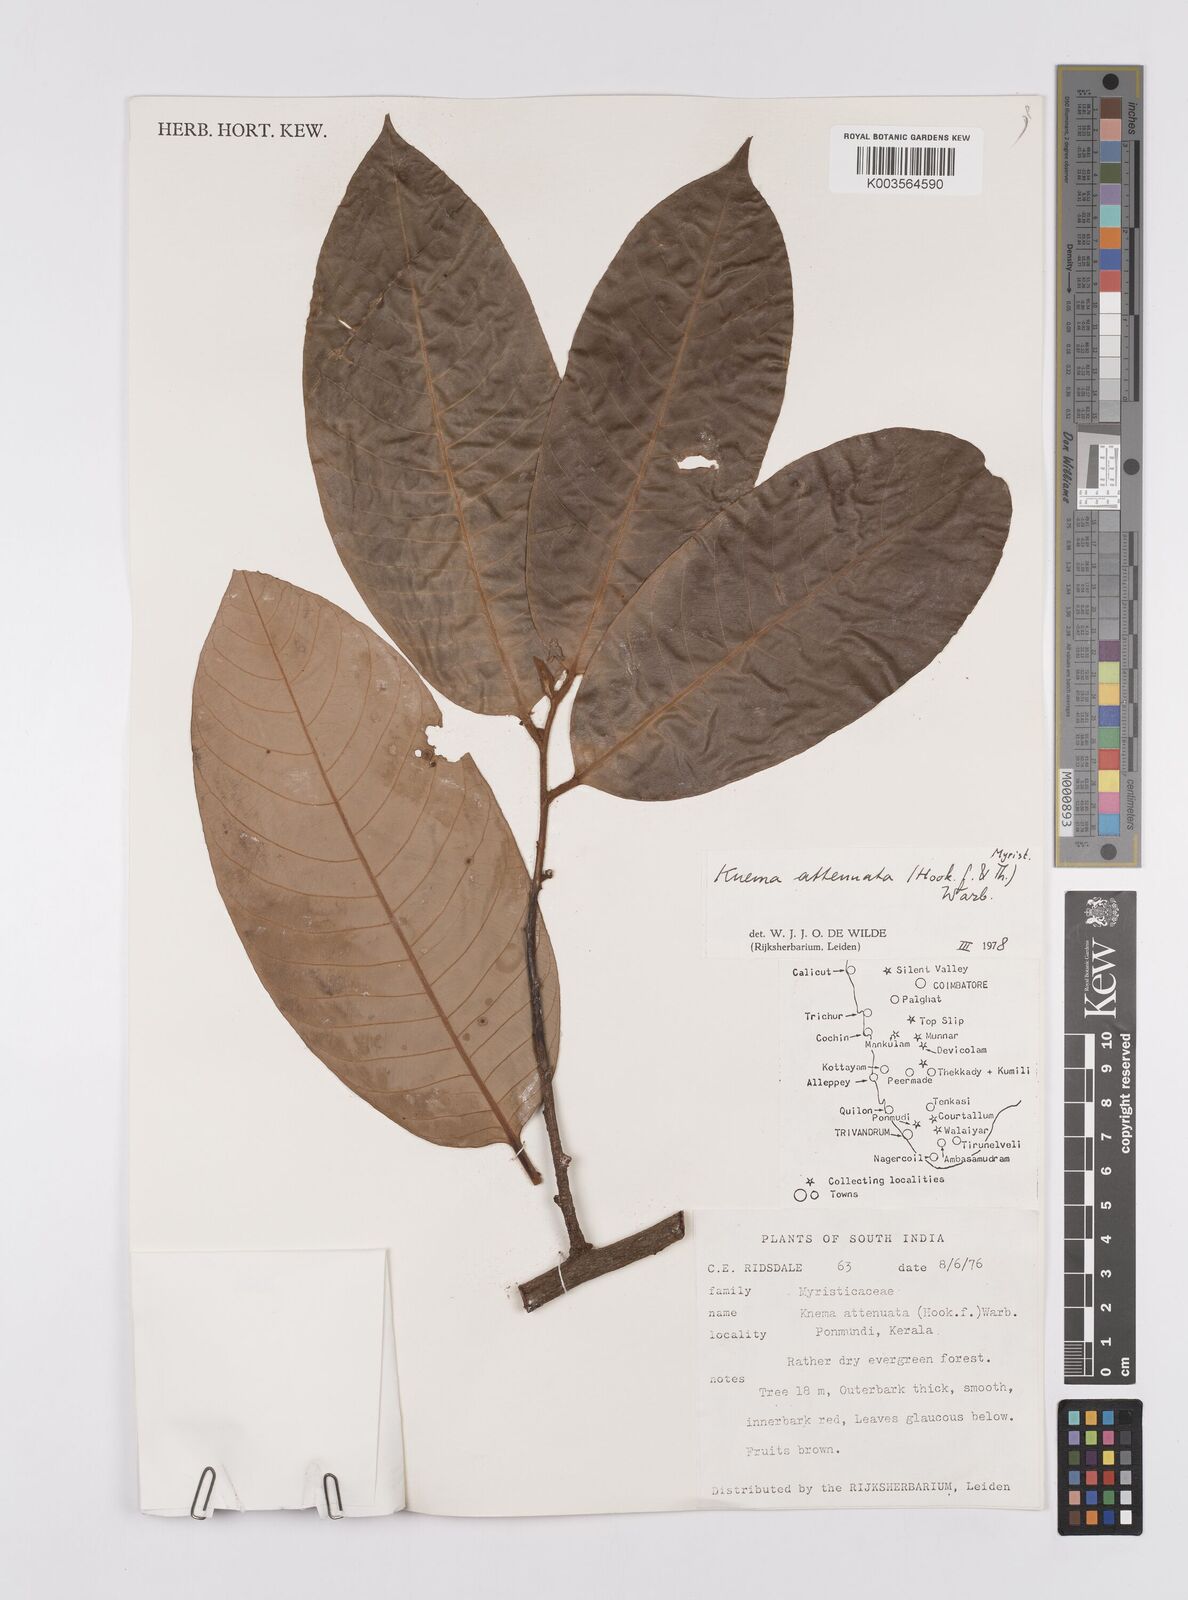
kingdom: Plantae
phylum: Tracheophyta
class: Magnoliopsida
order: Magnoliales
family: Myristicaceae
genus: Knema
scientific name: Knema attenuata
